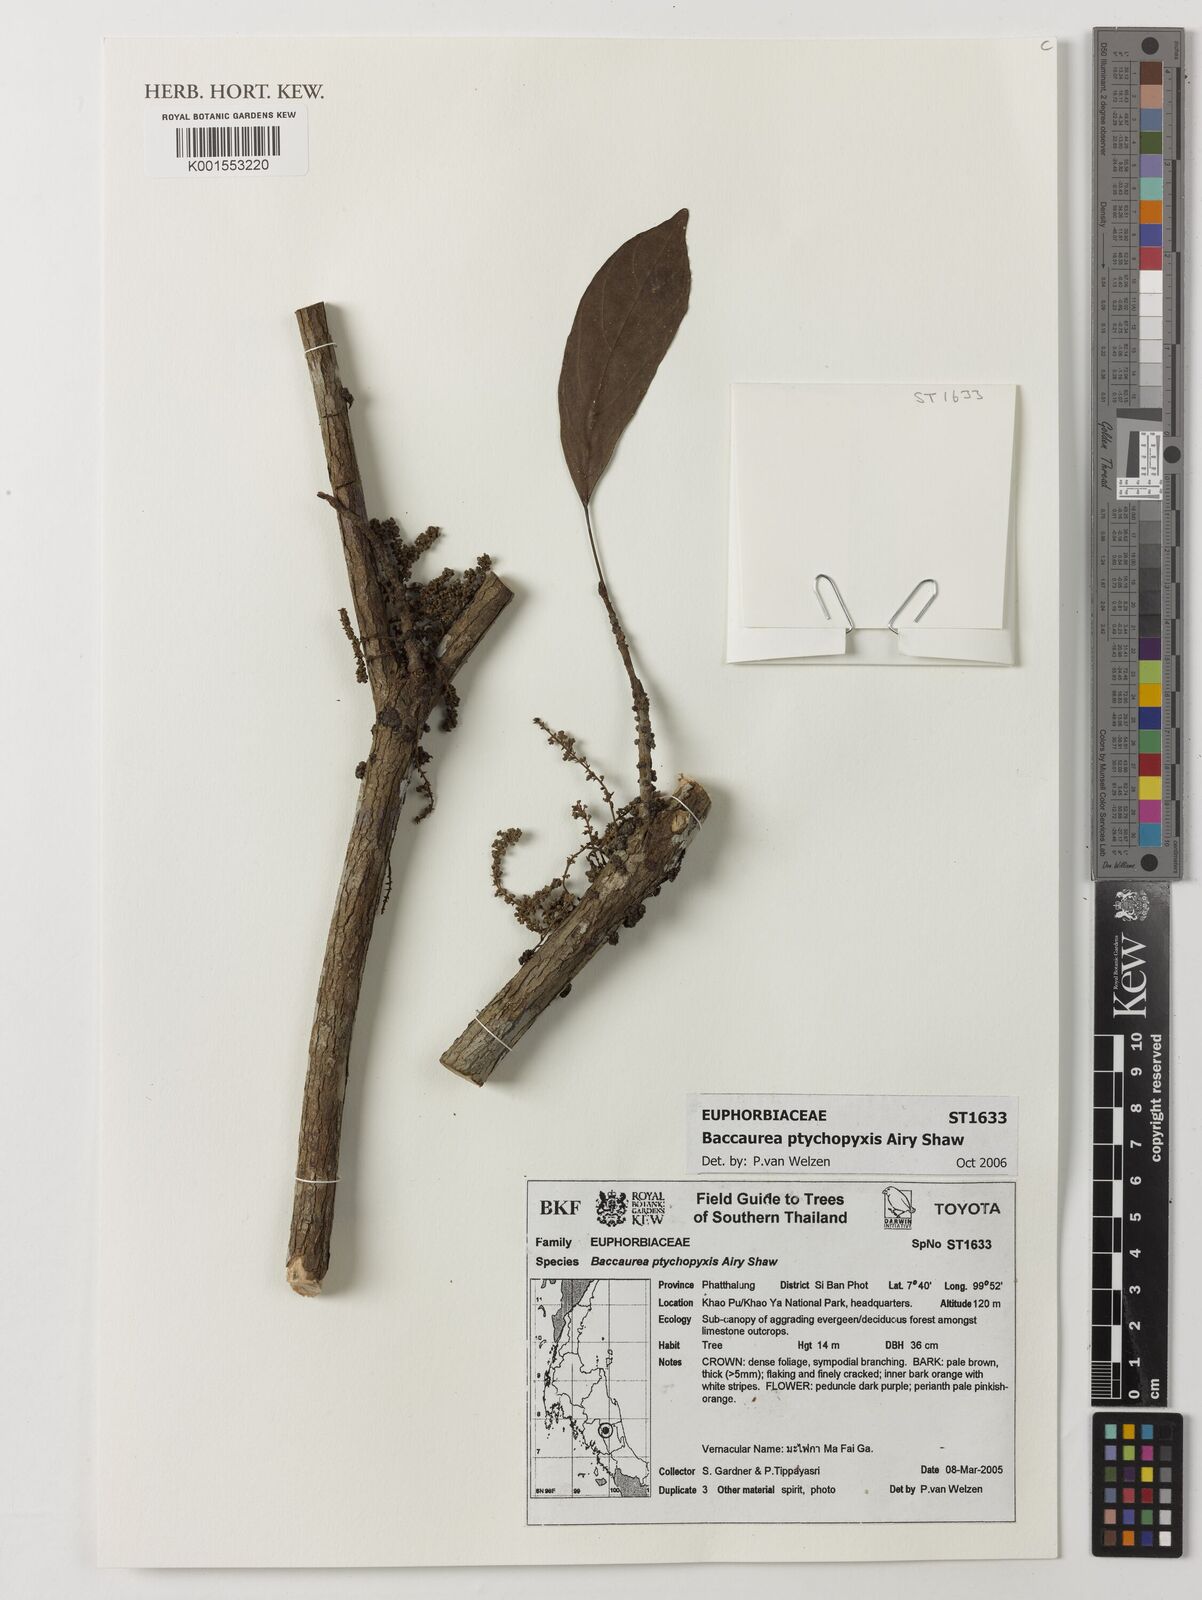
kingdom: Plantae
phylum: Tracheophyta
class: Magnoliopsida
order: Malpighiales
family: Phyllanthaceae
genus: Baccaurea
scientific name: Baccaurea ptychopyxis
